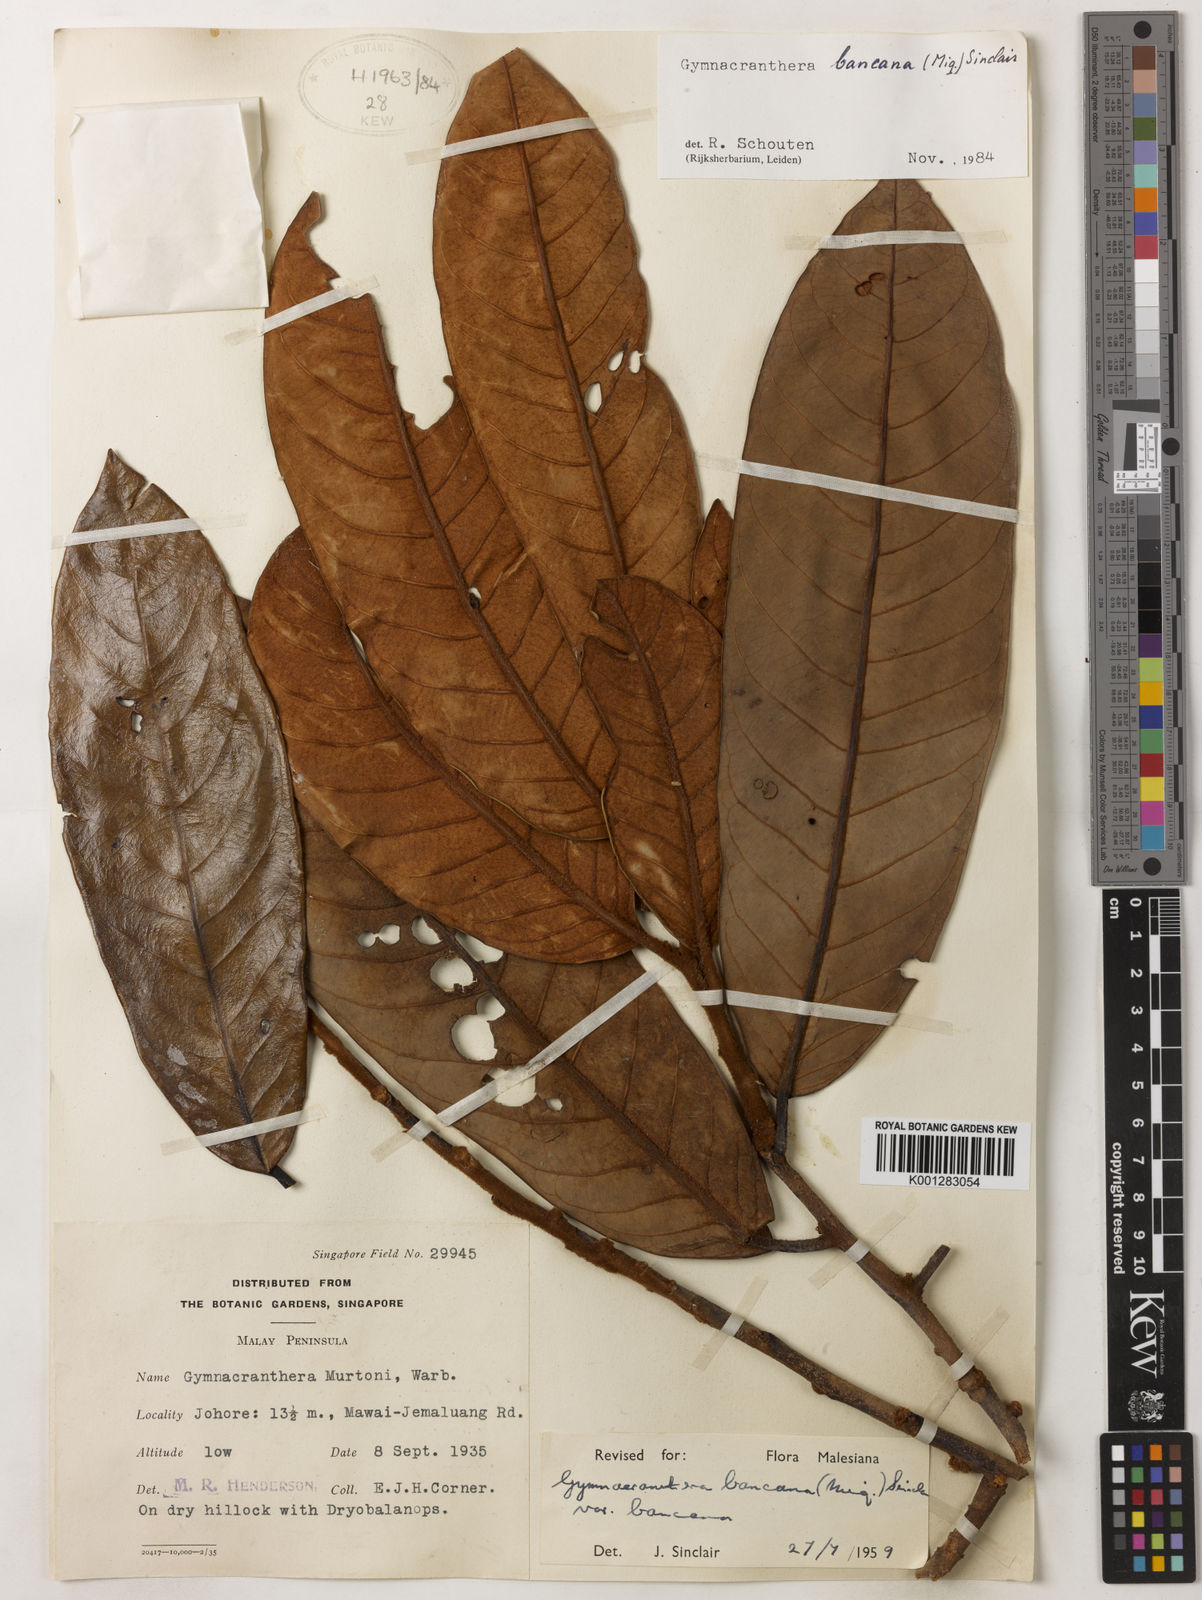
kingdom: Plantae
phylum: Tracheophyta
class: Magnoliopsida
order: Magnoliales
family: Myristicaceae
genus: Gymnacranthera
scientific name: Gymnacranthera bancana
